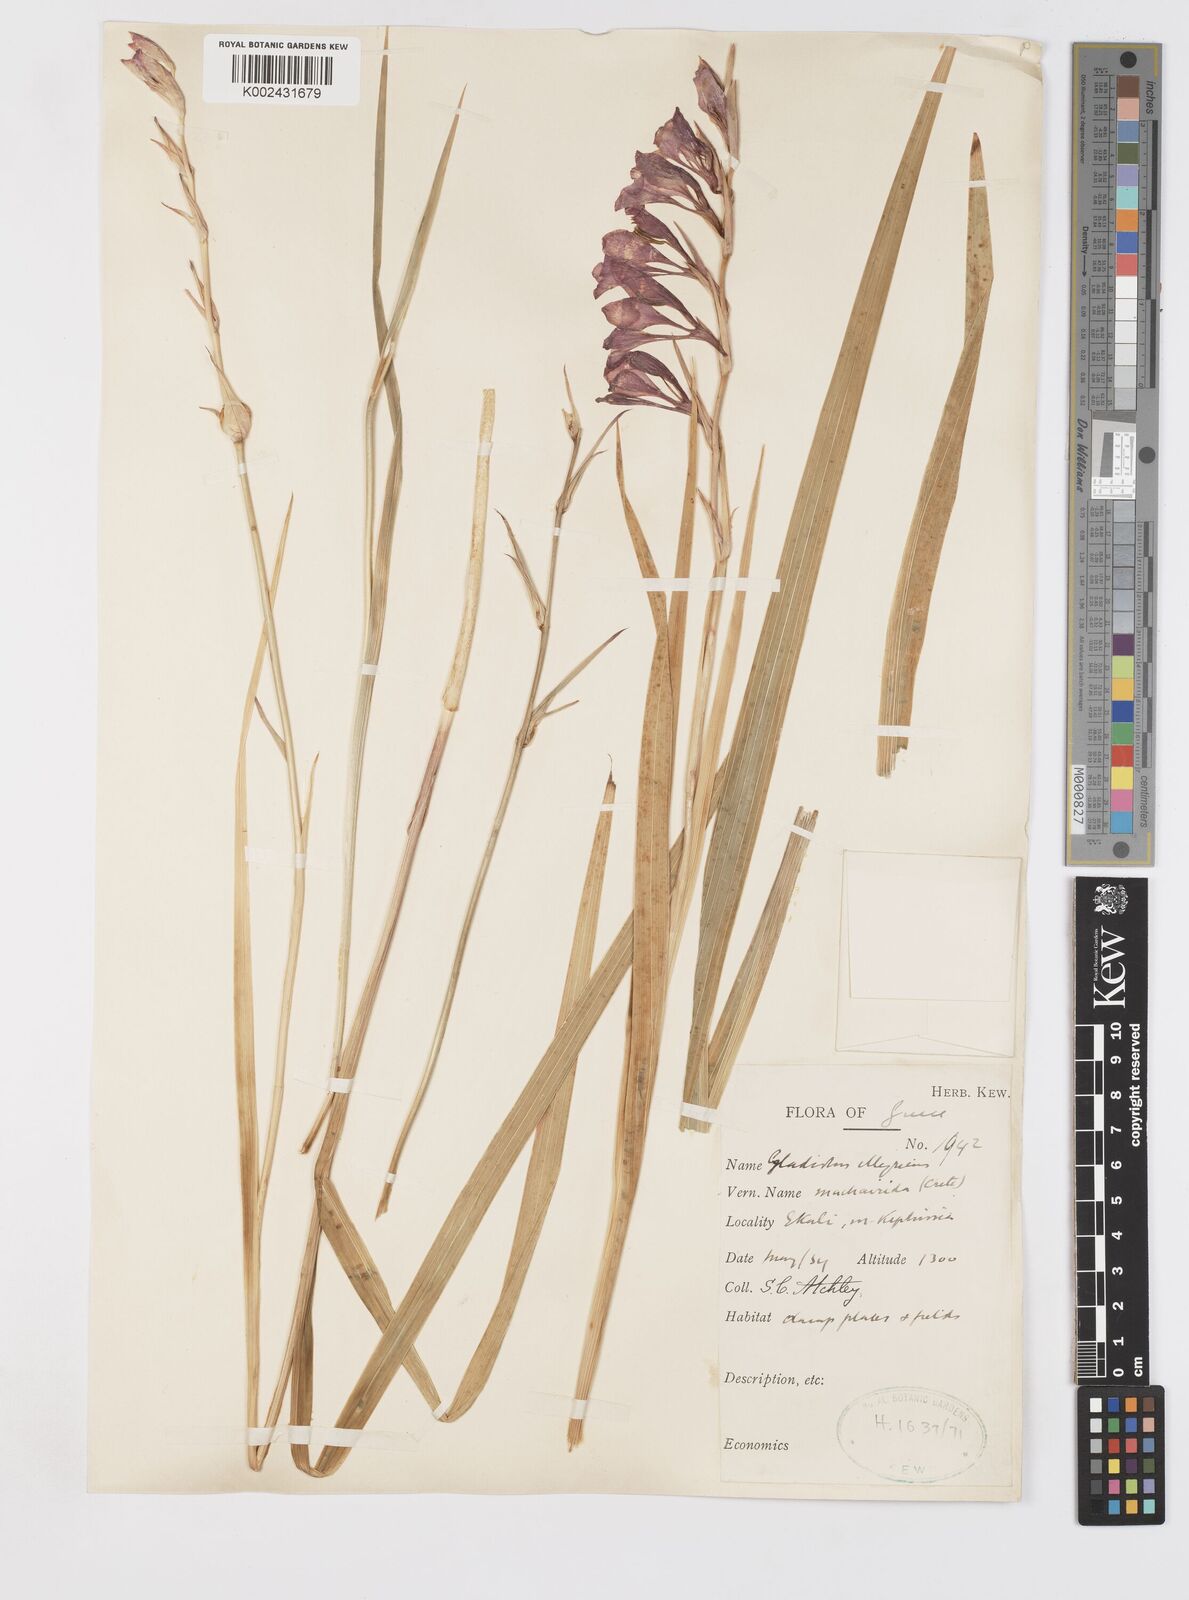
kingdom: Plantae
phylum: Tracheophyta
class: Liliopsida
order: Asparagales
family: Iridaceae
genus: Gladiolus
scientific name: Gladiolus illyricus
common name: Wild gladiolus
